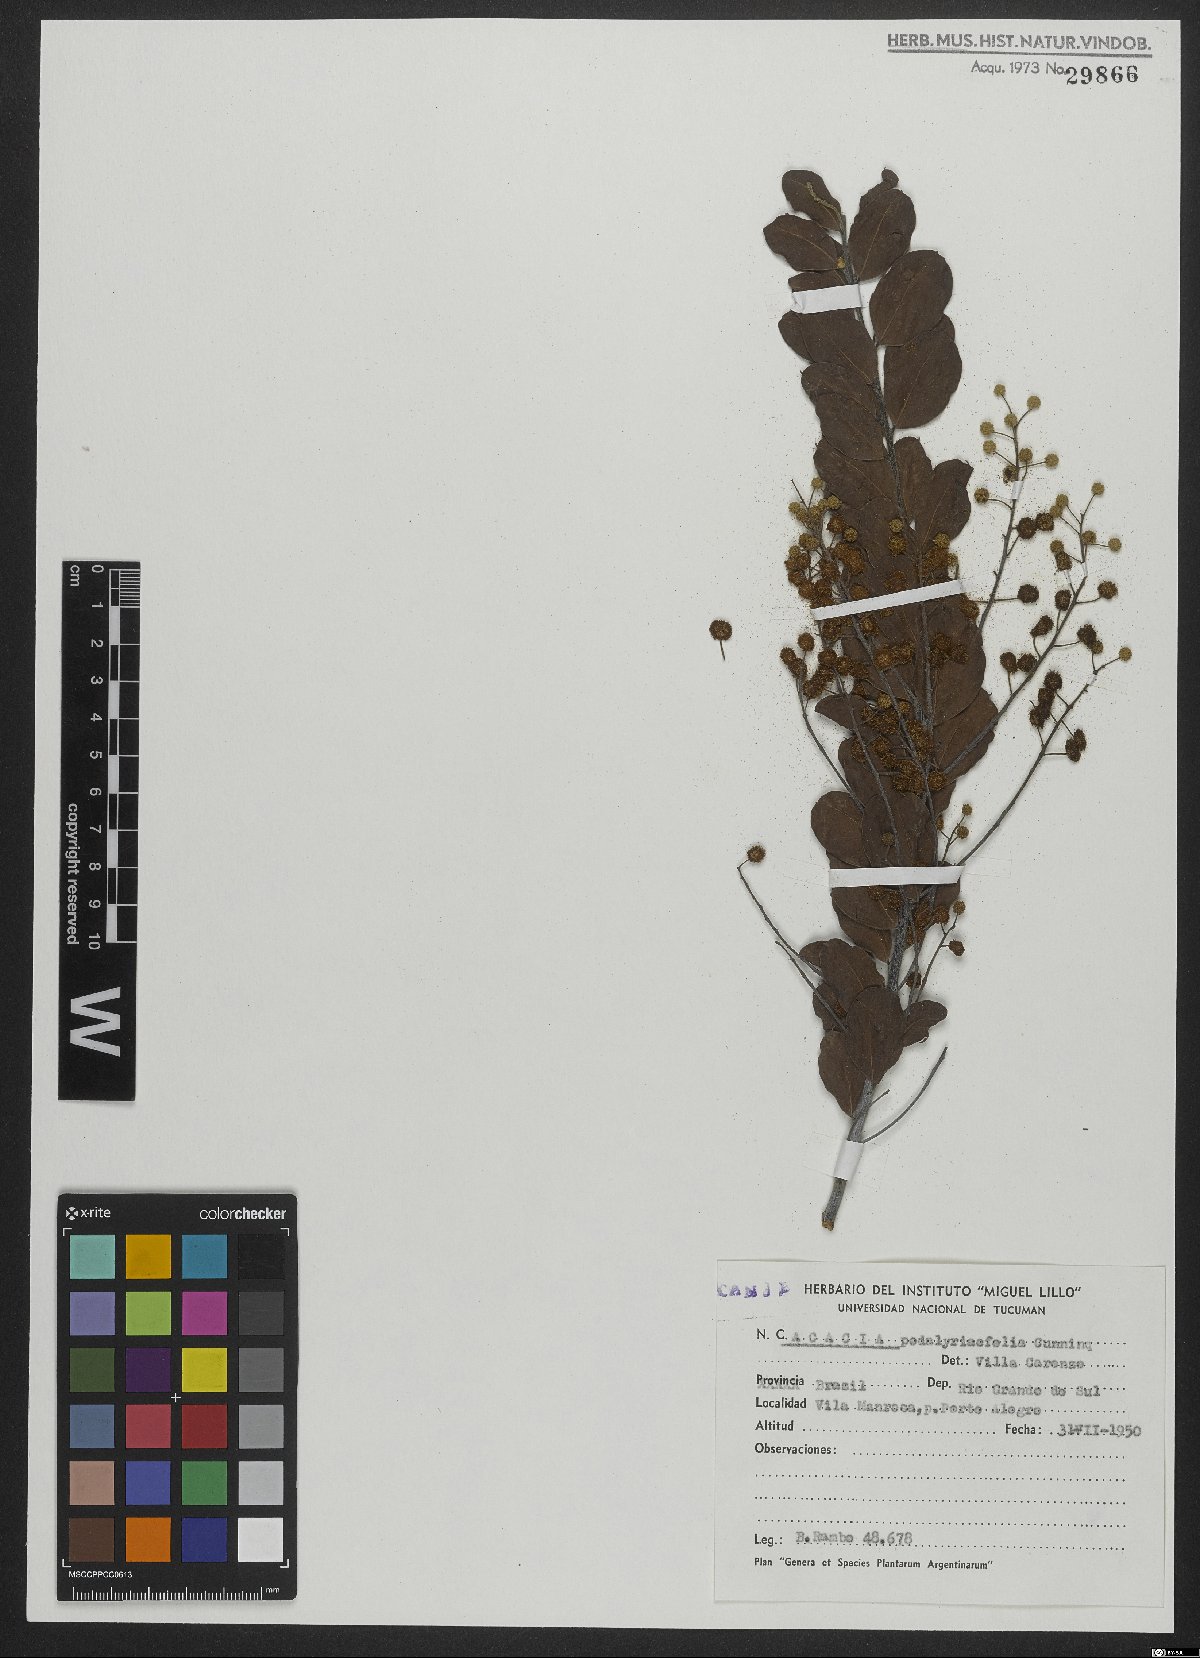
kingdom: Plantae
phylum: Tracheophyta
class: Magnoliopsida
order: Fabales
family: Fabaceae
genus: Acacia
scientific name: Acacia podalyriifolia
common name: Pearl wattle
